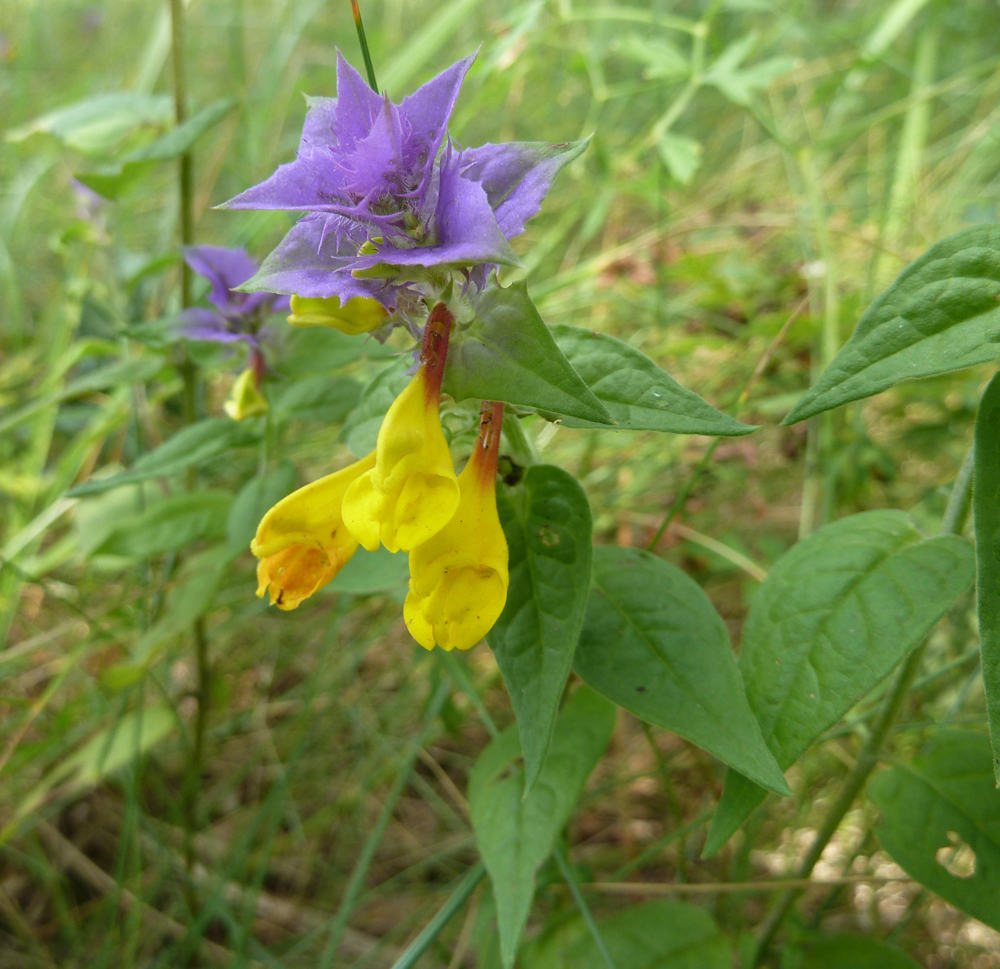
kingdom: Plantae
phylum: Tracheophyta
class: Magnoliopsida
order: Lamiales
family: Orobanchaceae
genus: Melampyrum
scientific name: Melampyrum nemorosum
